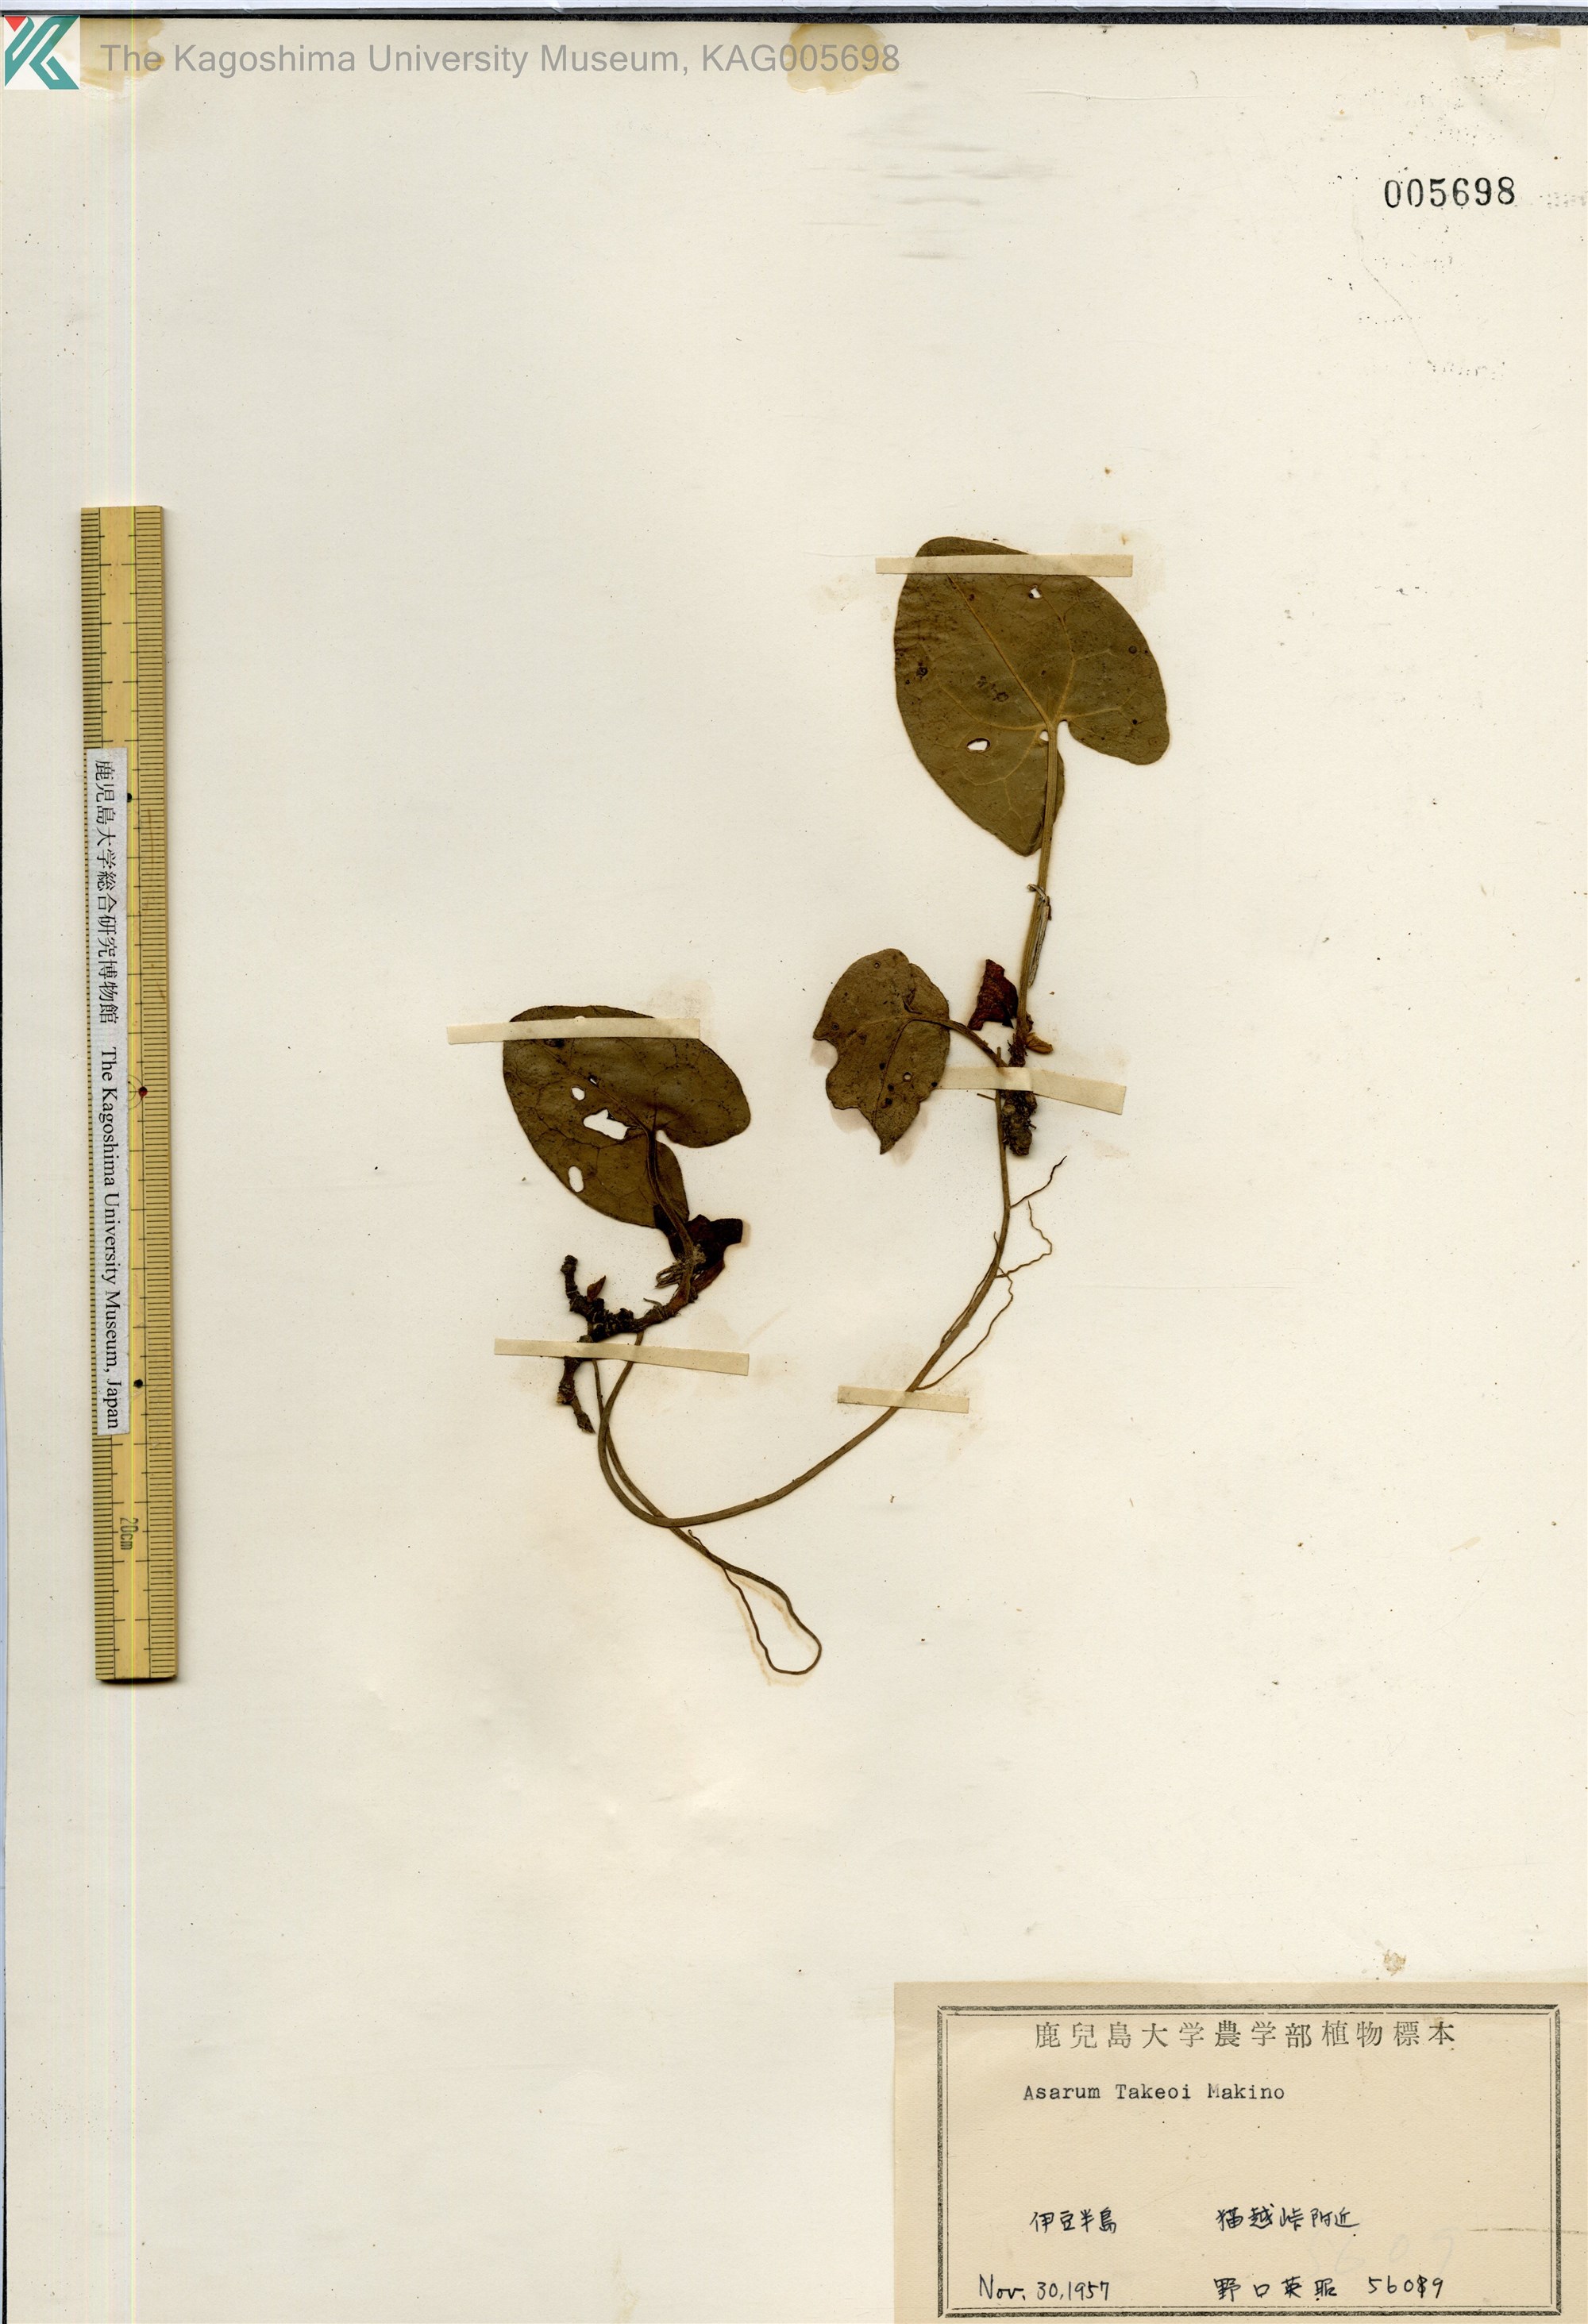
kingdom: Plantae
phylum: Tracheophyta
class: Magnoliopsida
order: Piperales
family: Aristolochiaceae
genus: Asarum
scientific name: Asarum fauriei
